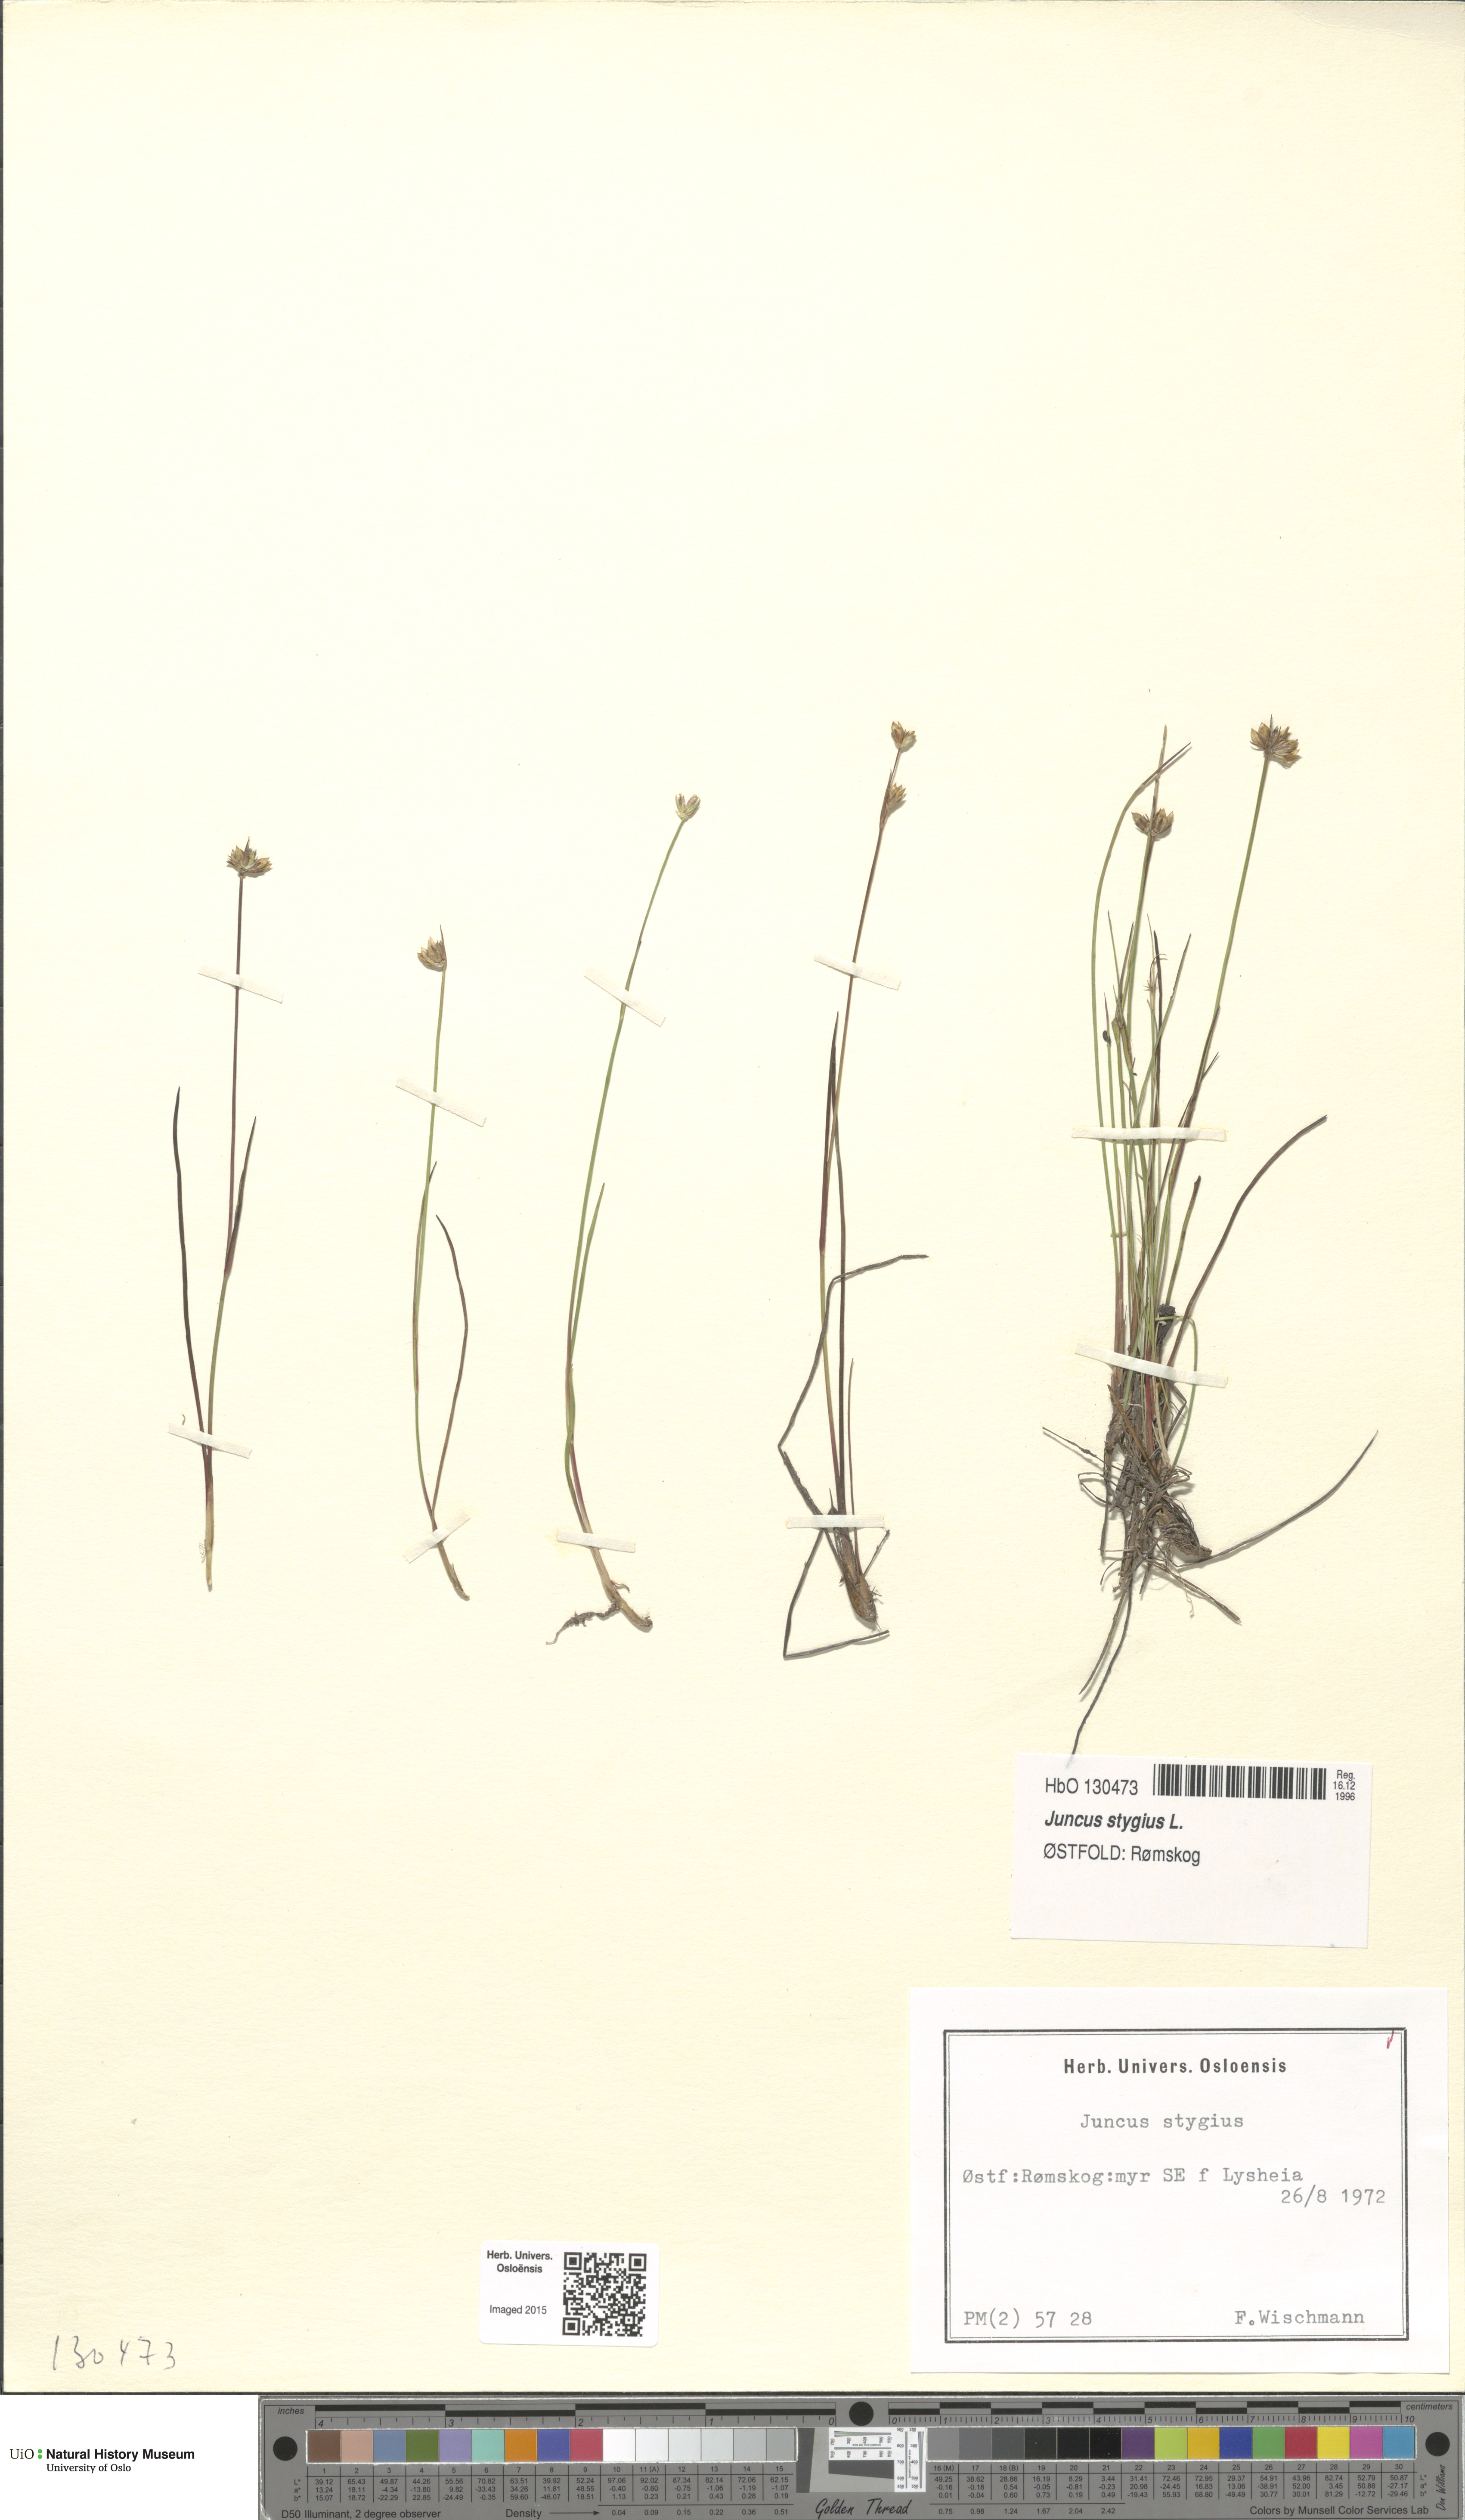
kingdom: Plantae
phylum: Tracheophyta
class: Liliopsida
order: Poales
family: Juncaceae
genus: Juncus
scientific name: Juncus stygius
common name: Bog rush
